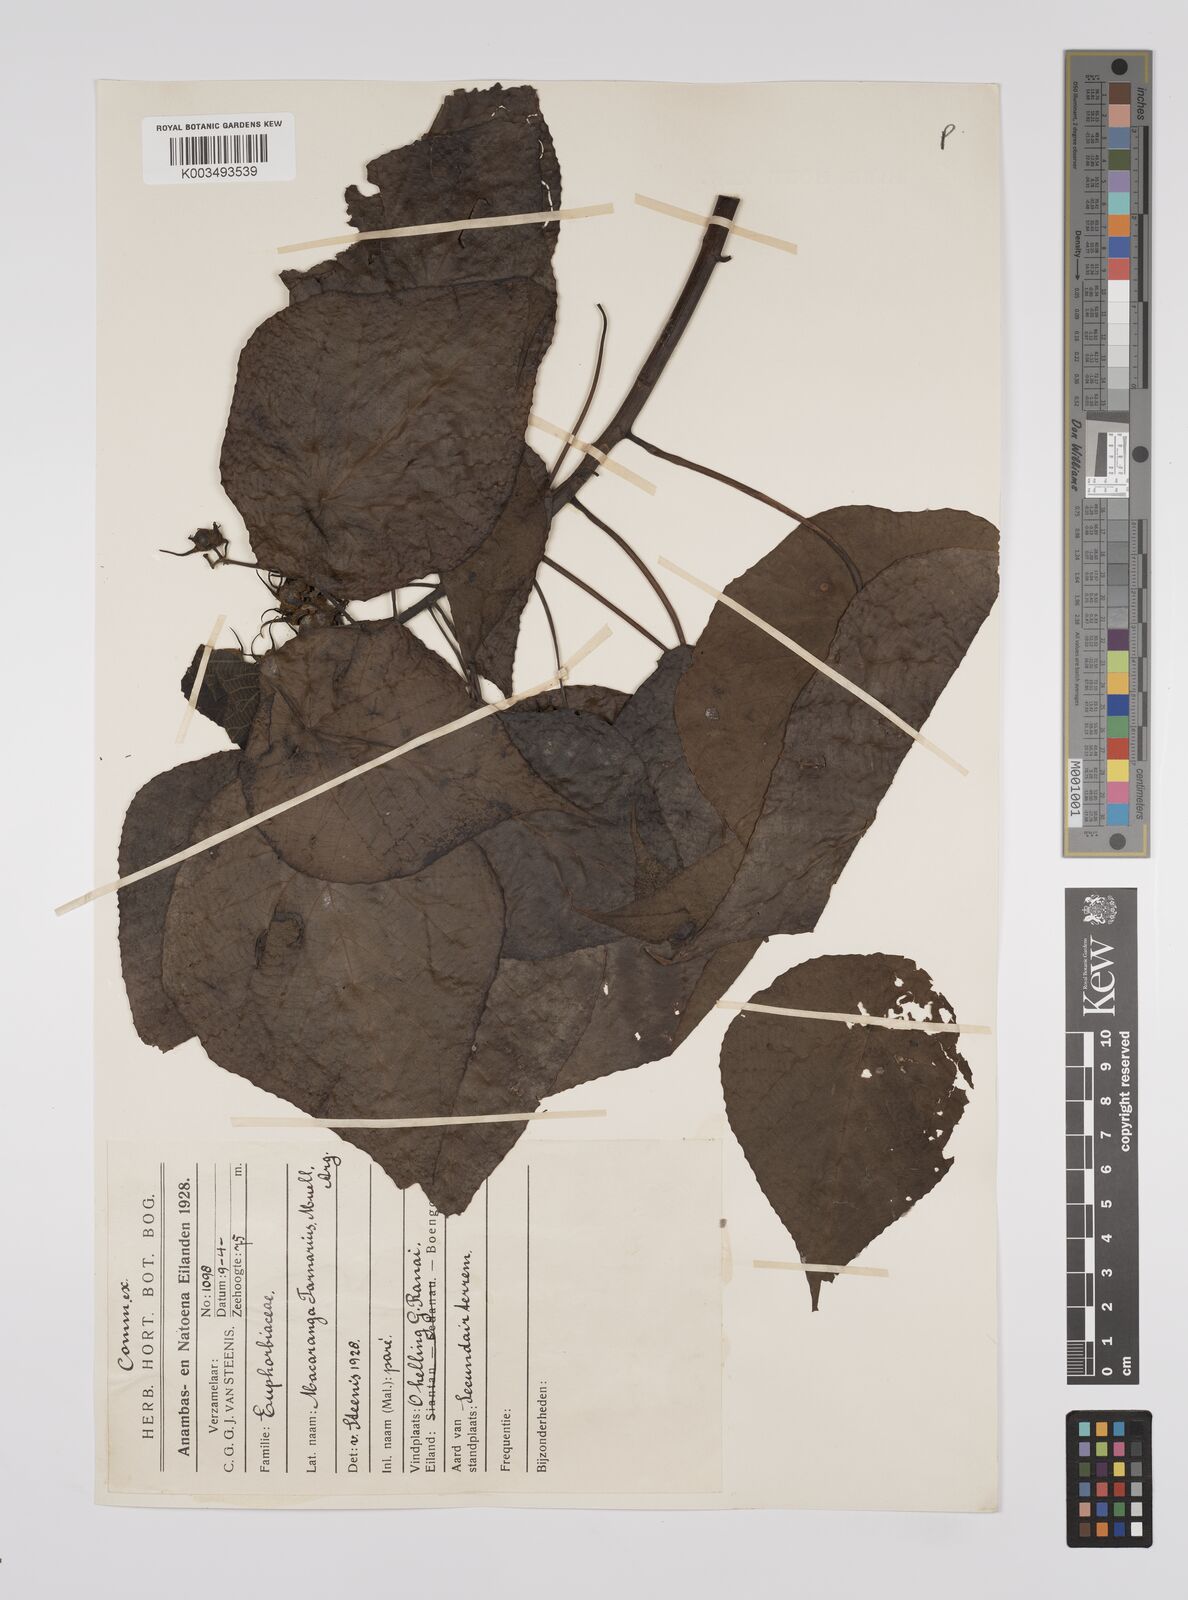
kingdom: Plantae
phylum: Tracheophyta
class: Magnoliopsida
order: Malpighiales
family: Euphorbiaceae
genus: Macaranga
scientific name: Macaranga tanarius
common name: Parasol leaf tree
